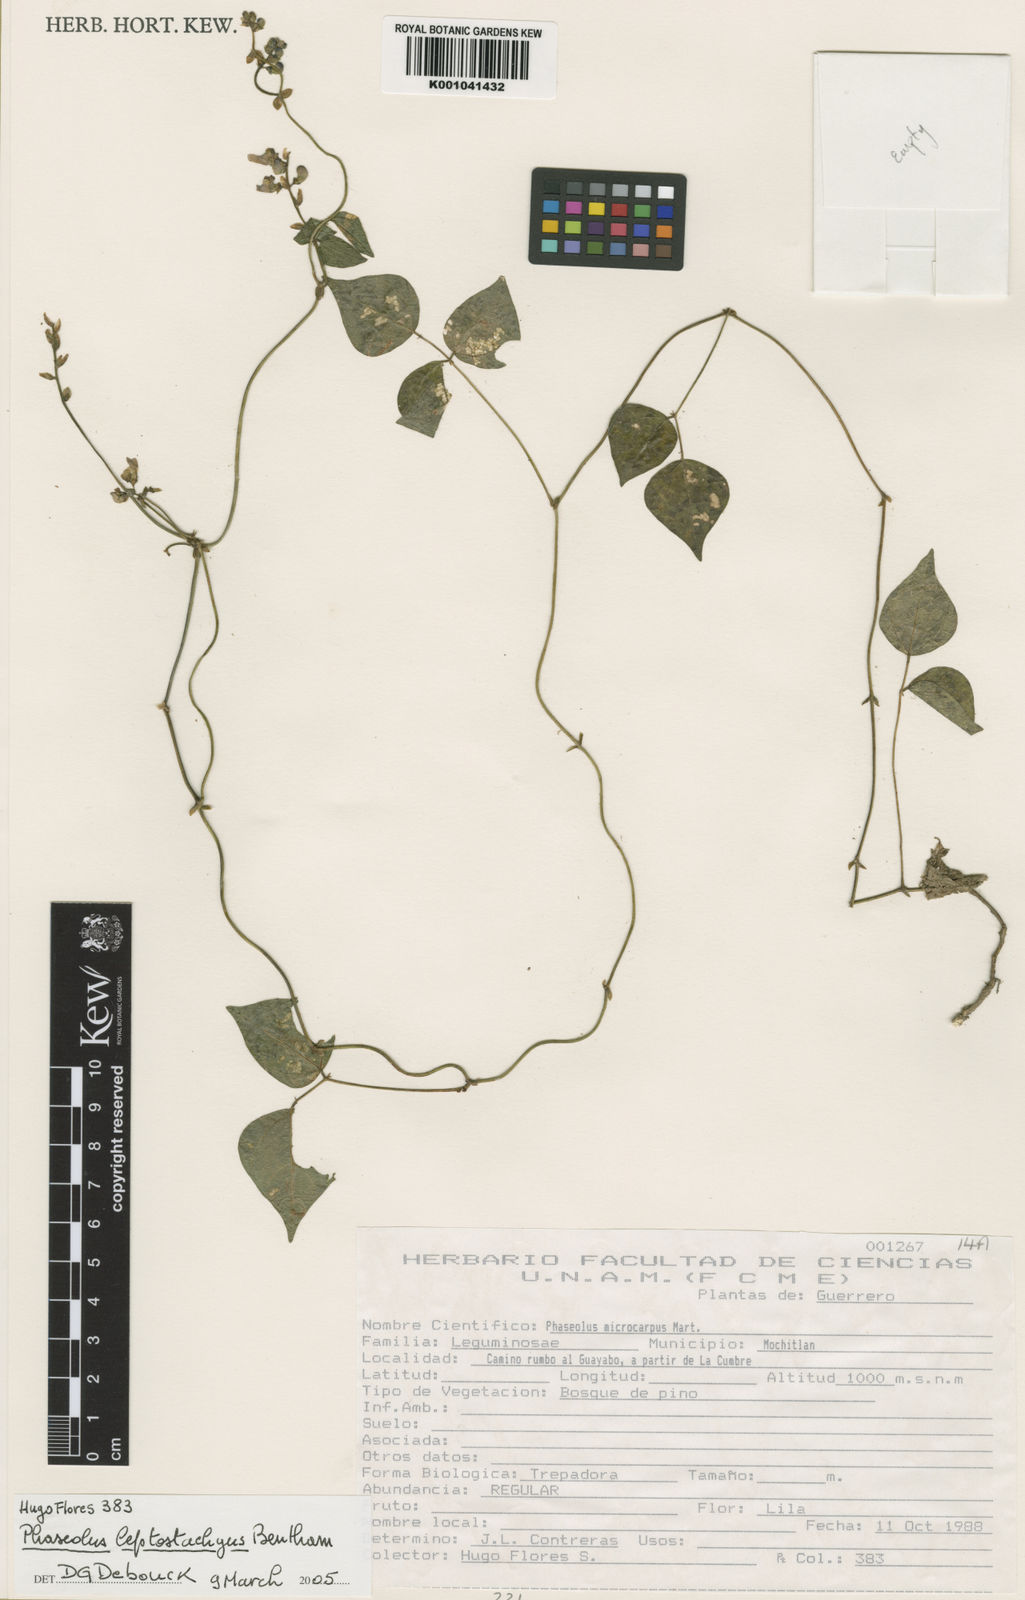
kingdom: Plantae
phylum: Tracheophyta
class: Magnoliopsida
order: Fabales
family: Fabaceae
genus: Phaseolus
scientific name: Phaseolus
